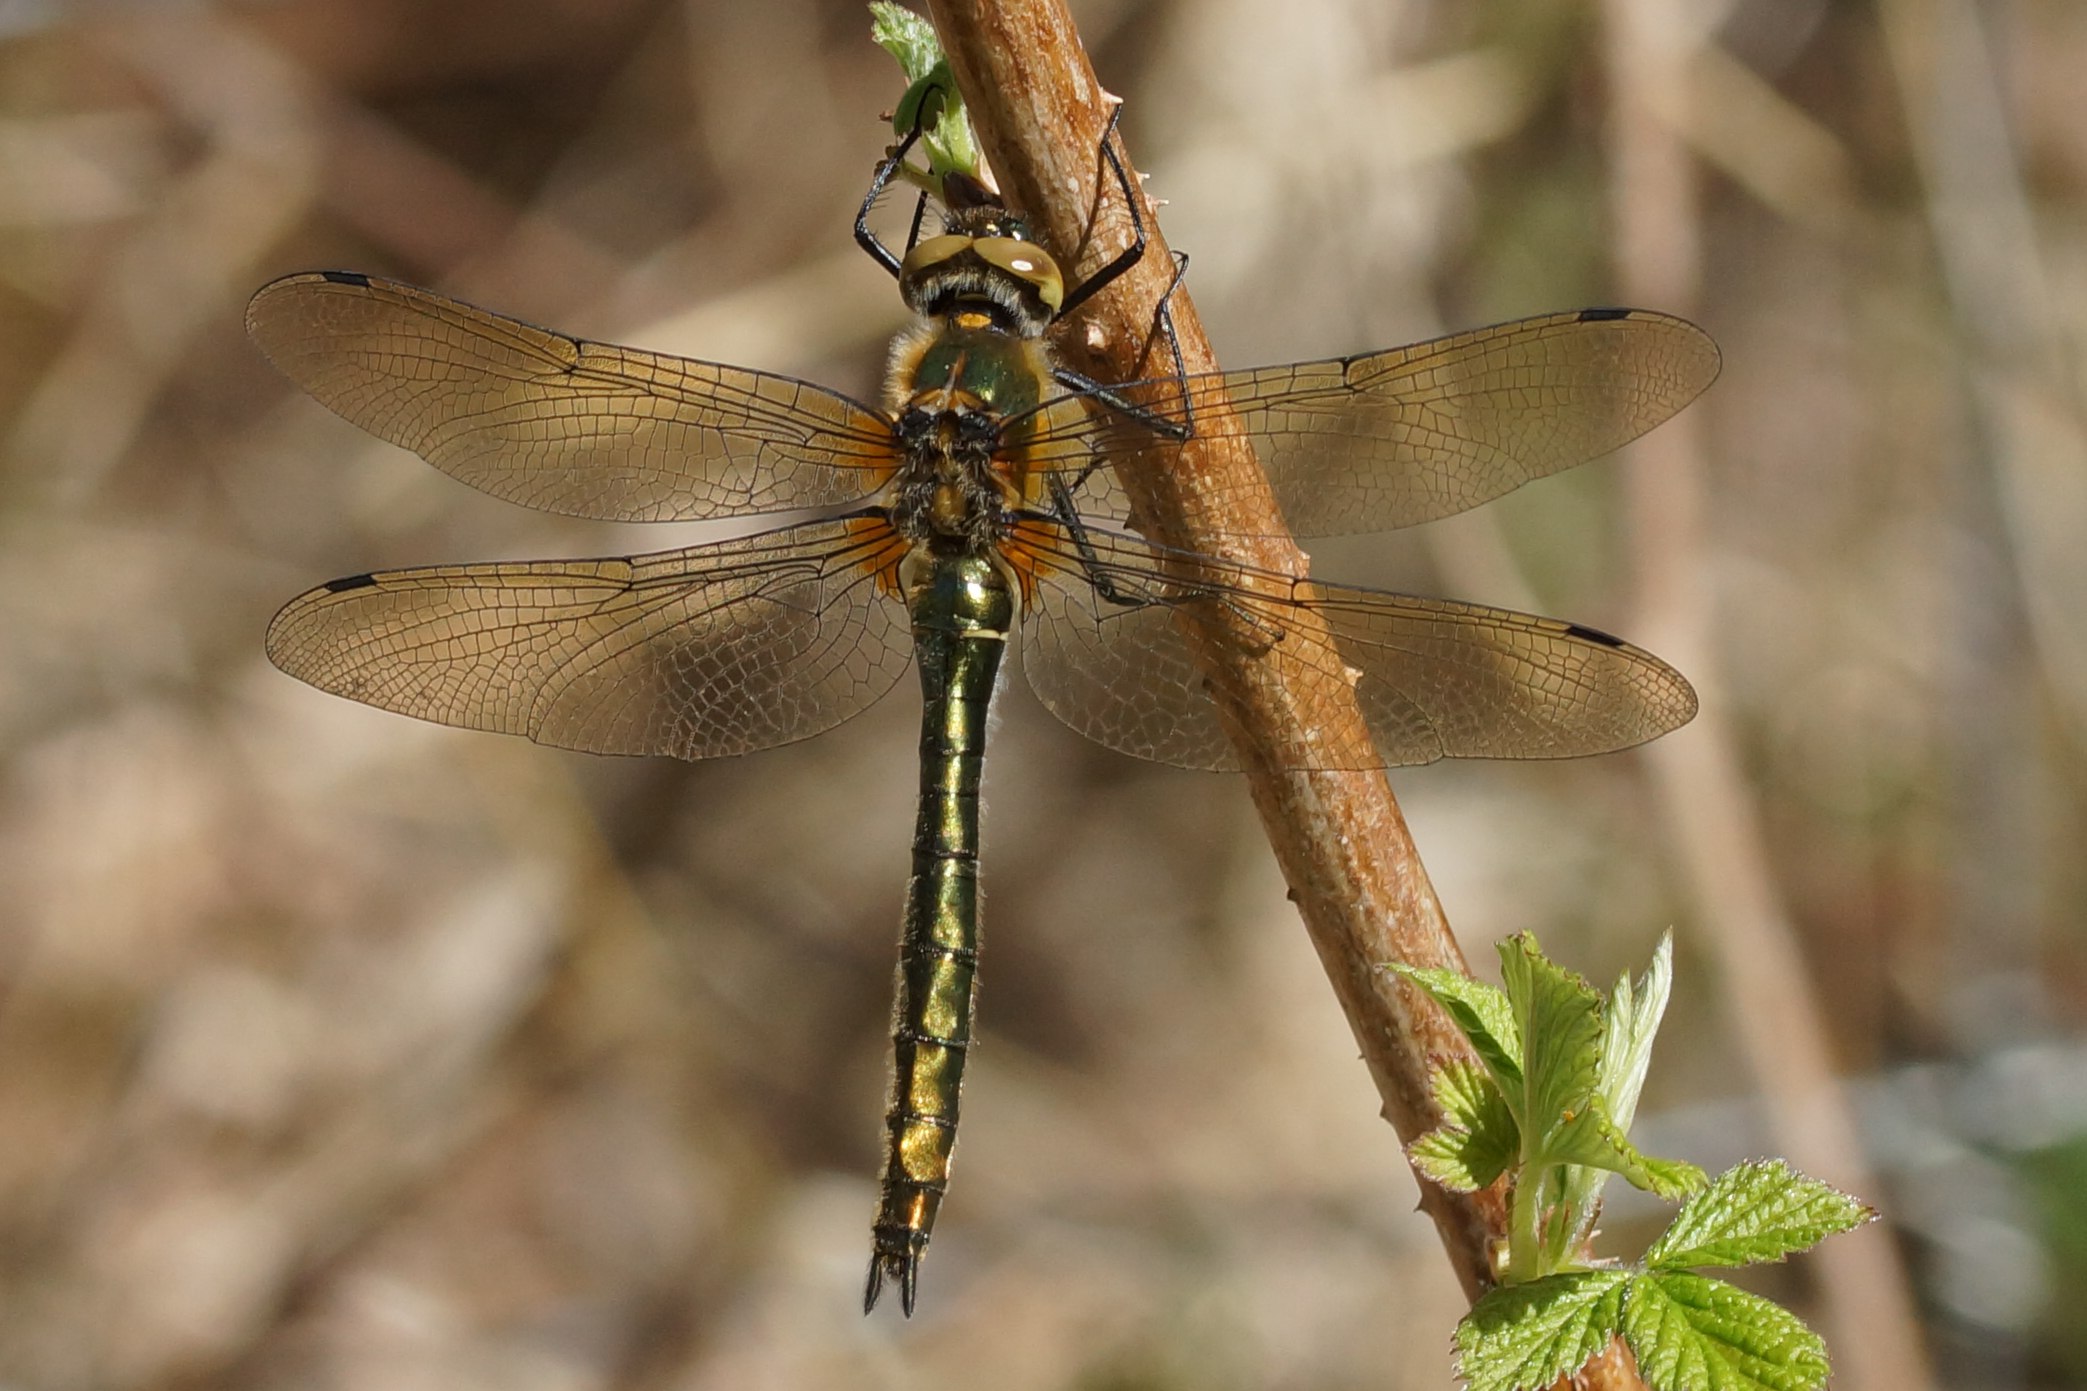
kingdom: Animalia
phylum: Arthropoda
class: Insecta
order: Odonata
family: Corduliidae
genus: Cordulia
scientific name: Cordulia aenea
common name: Grøn smaragdlibel
